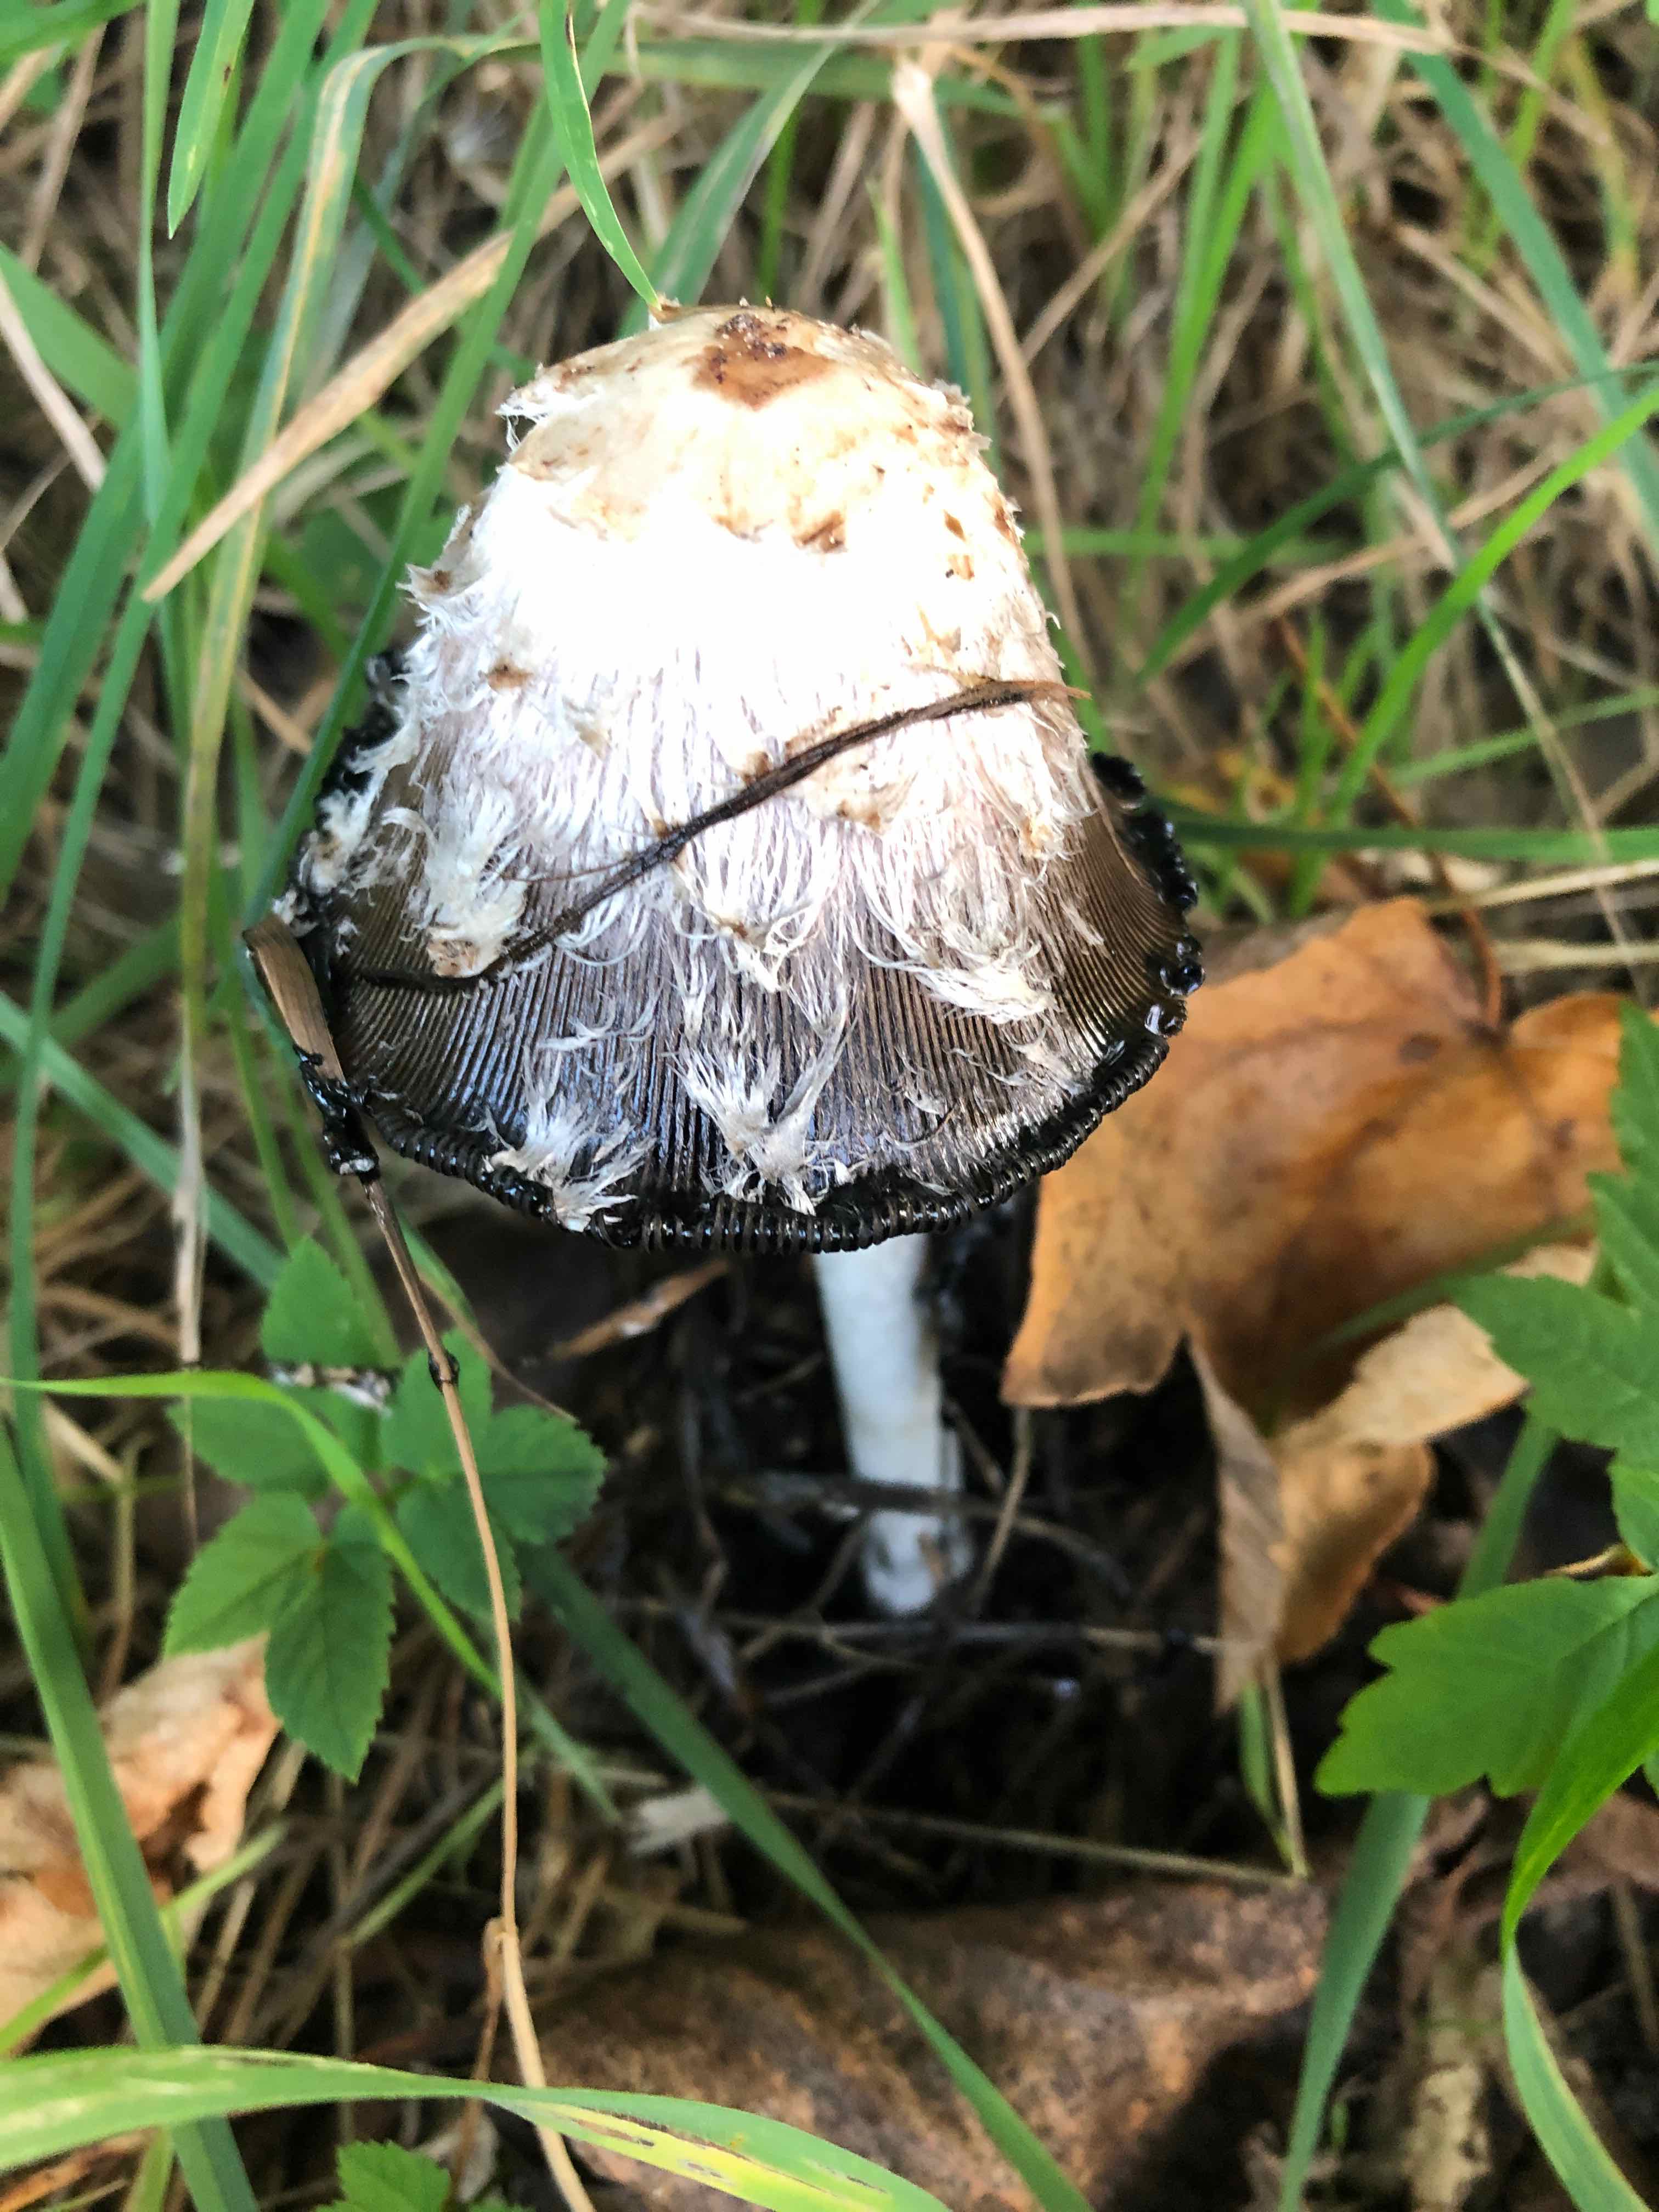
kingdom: Fungi
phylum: Basidiomycota
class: Agaricomycetes
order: Agaricales
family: Agaricaceae
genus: Coprinus
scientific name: Coprinus comatus
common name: stor parykhat
